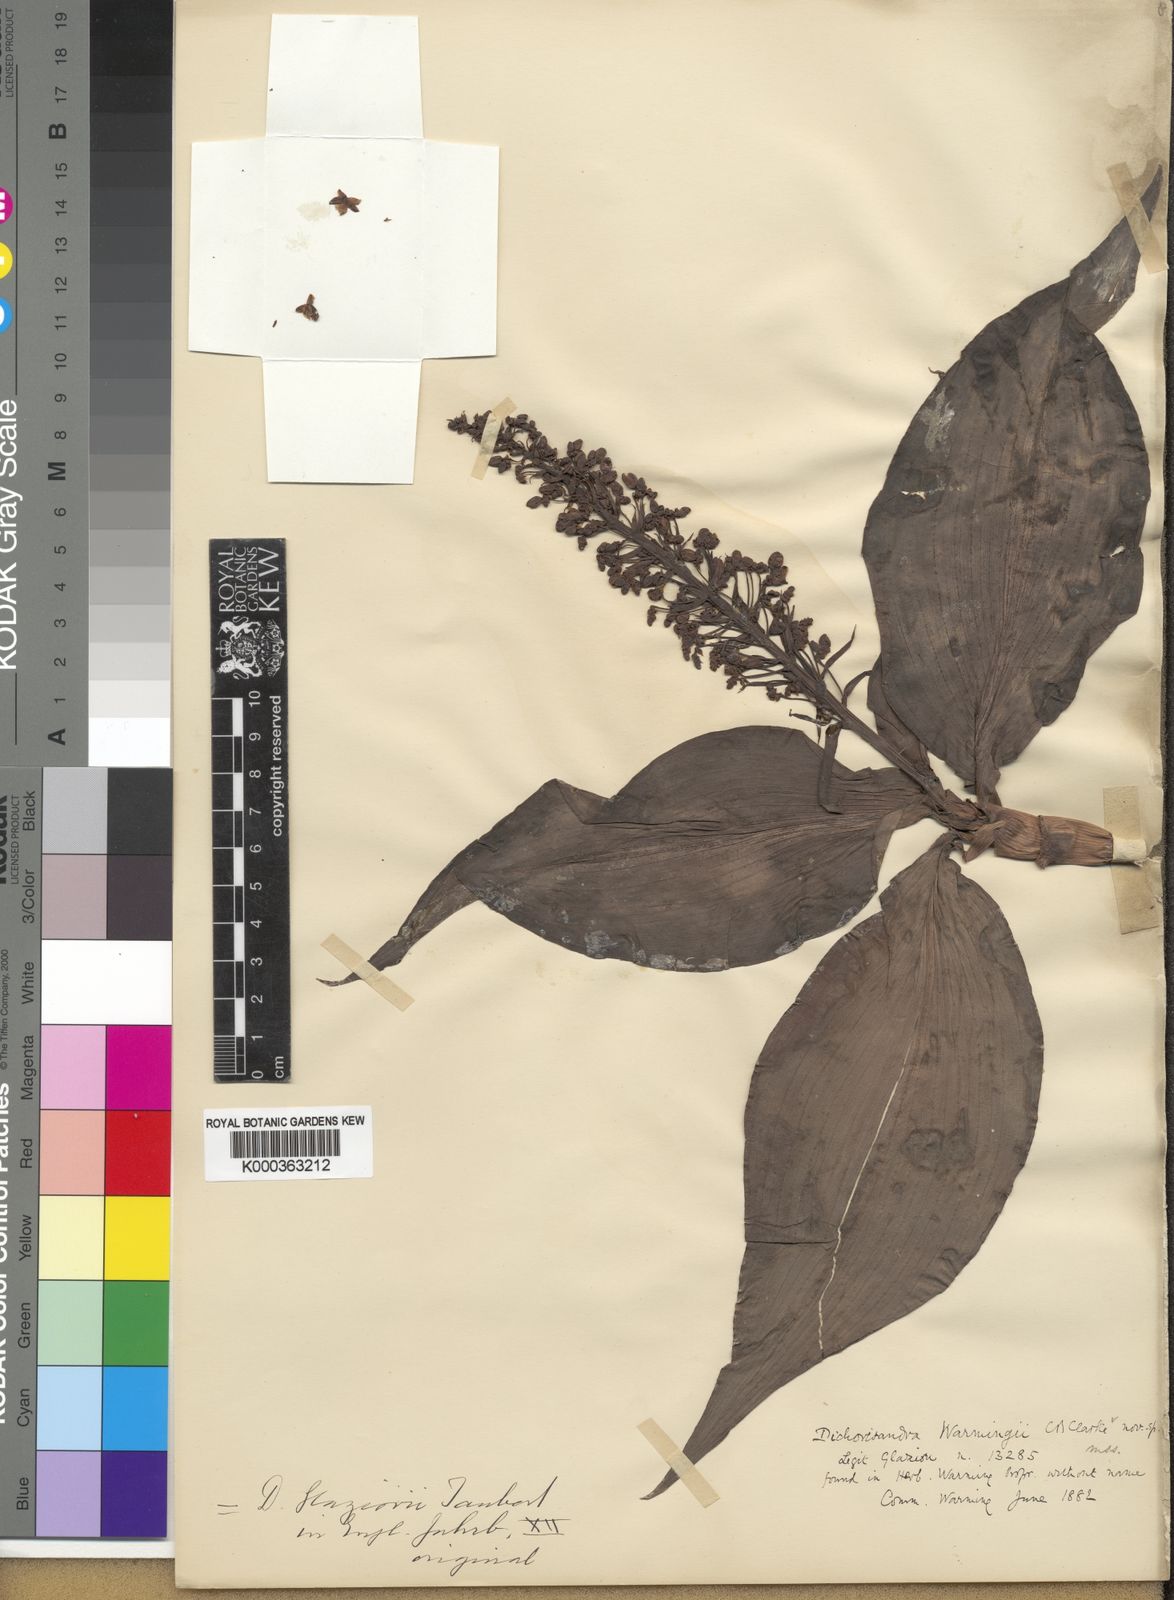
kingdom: Plantae
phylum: Tracheophyta
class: Liliopsida
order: Commelinales
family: Commelinaceae
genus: Dichorisandra
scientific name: Dichorisandra glaziovii
